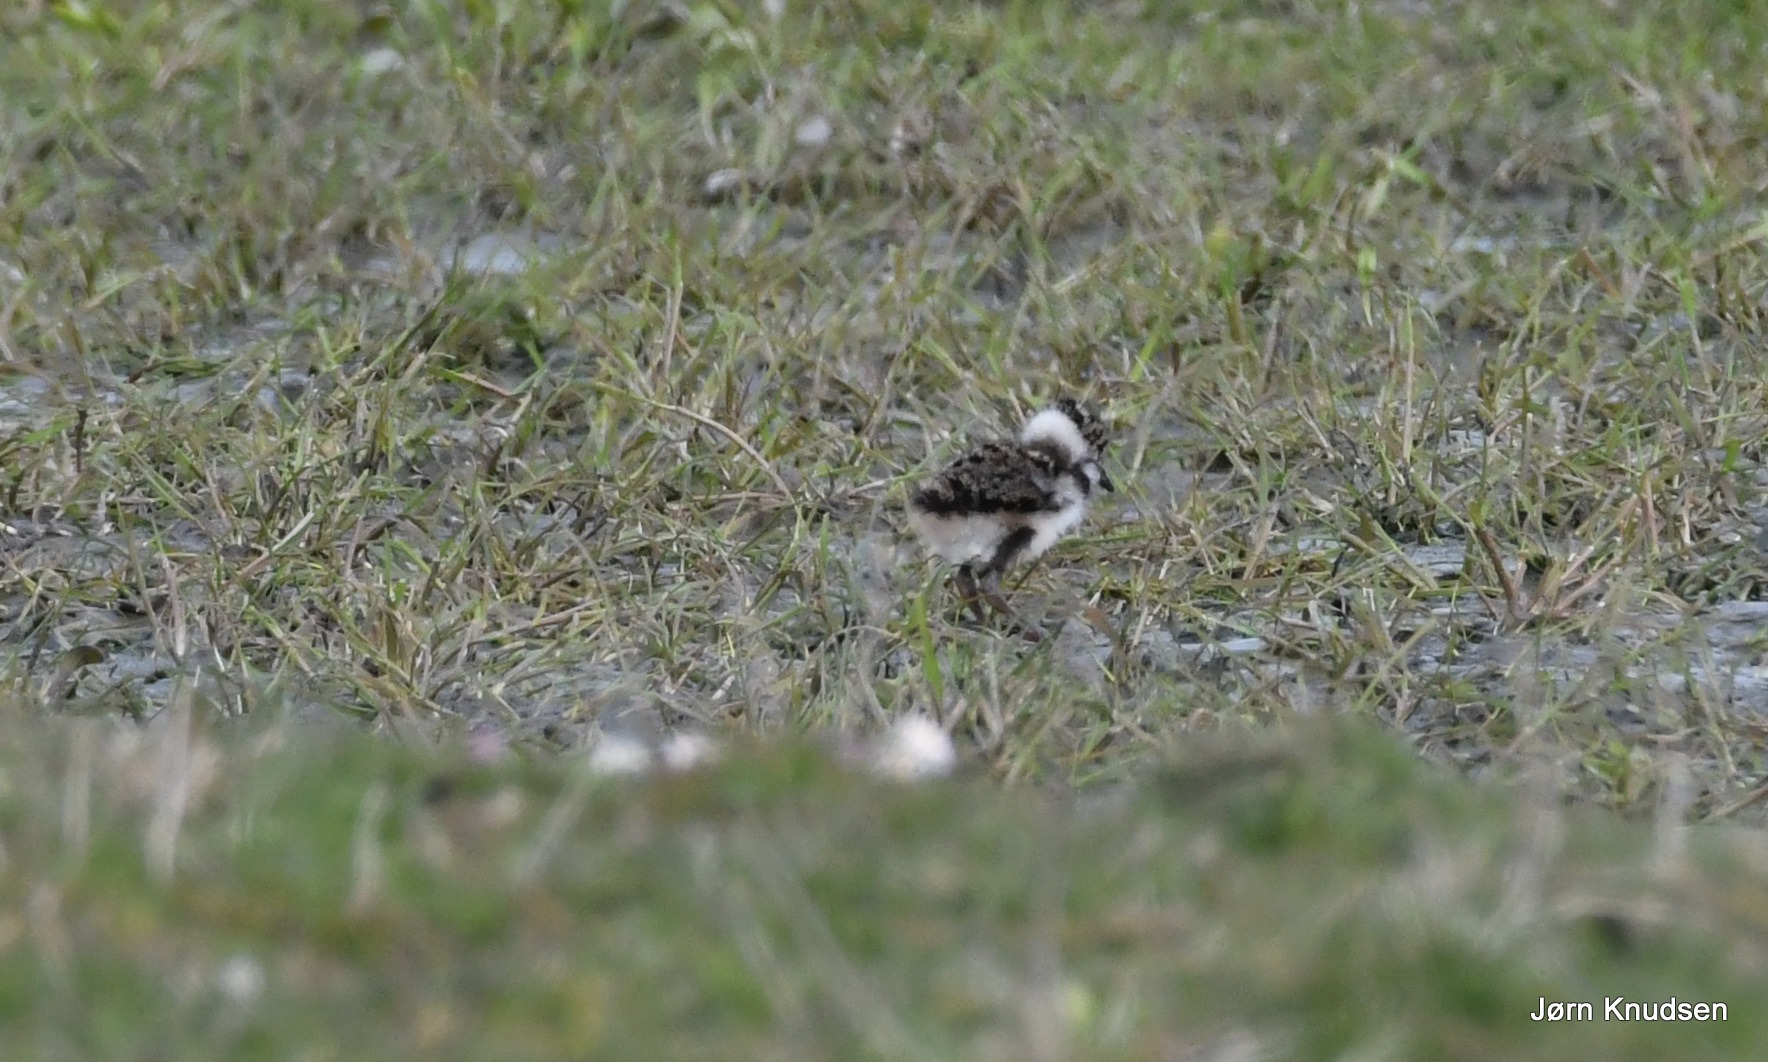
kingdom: Animalia
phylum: Chordata
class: Aves
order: Charadriiformes
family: Charadriidae
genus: Vanellus
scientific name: Vanellus vanellus
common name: Vibe
